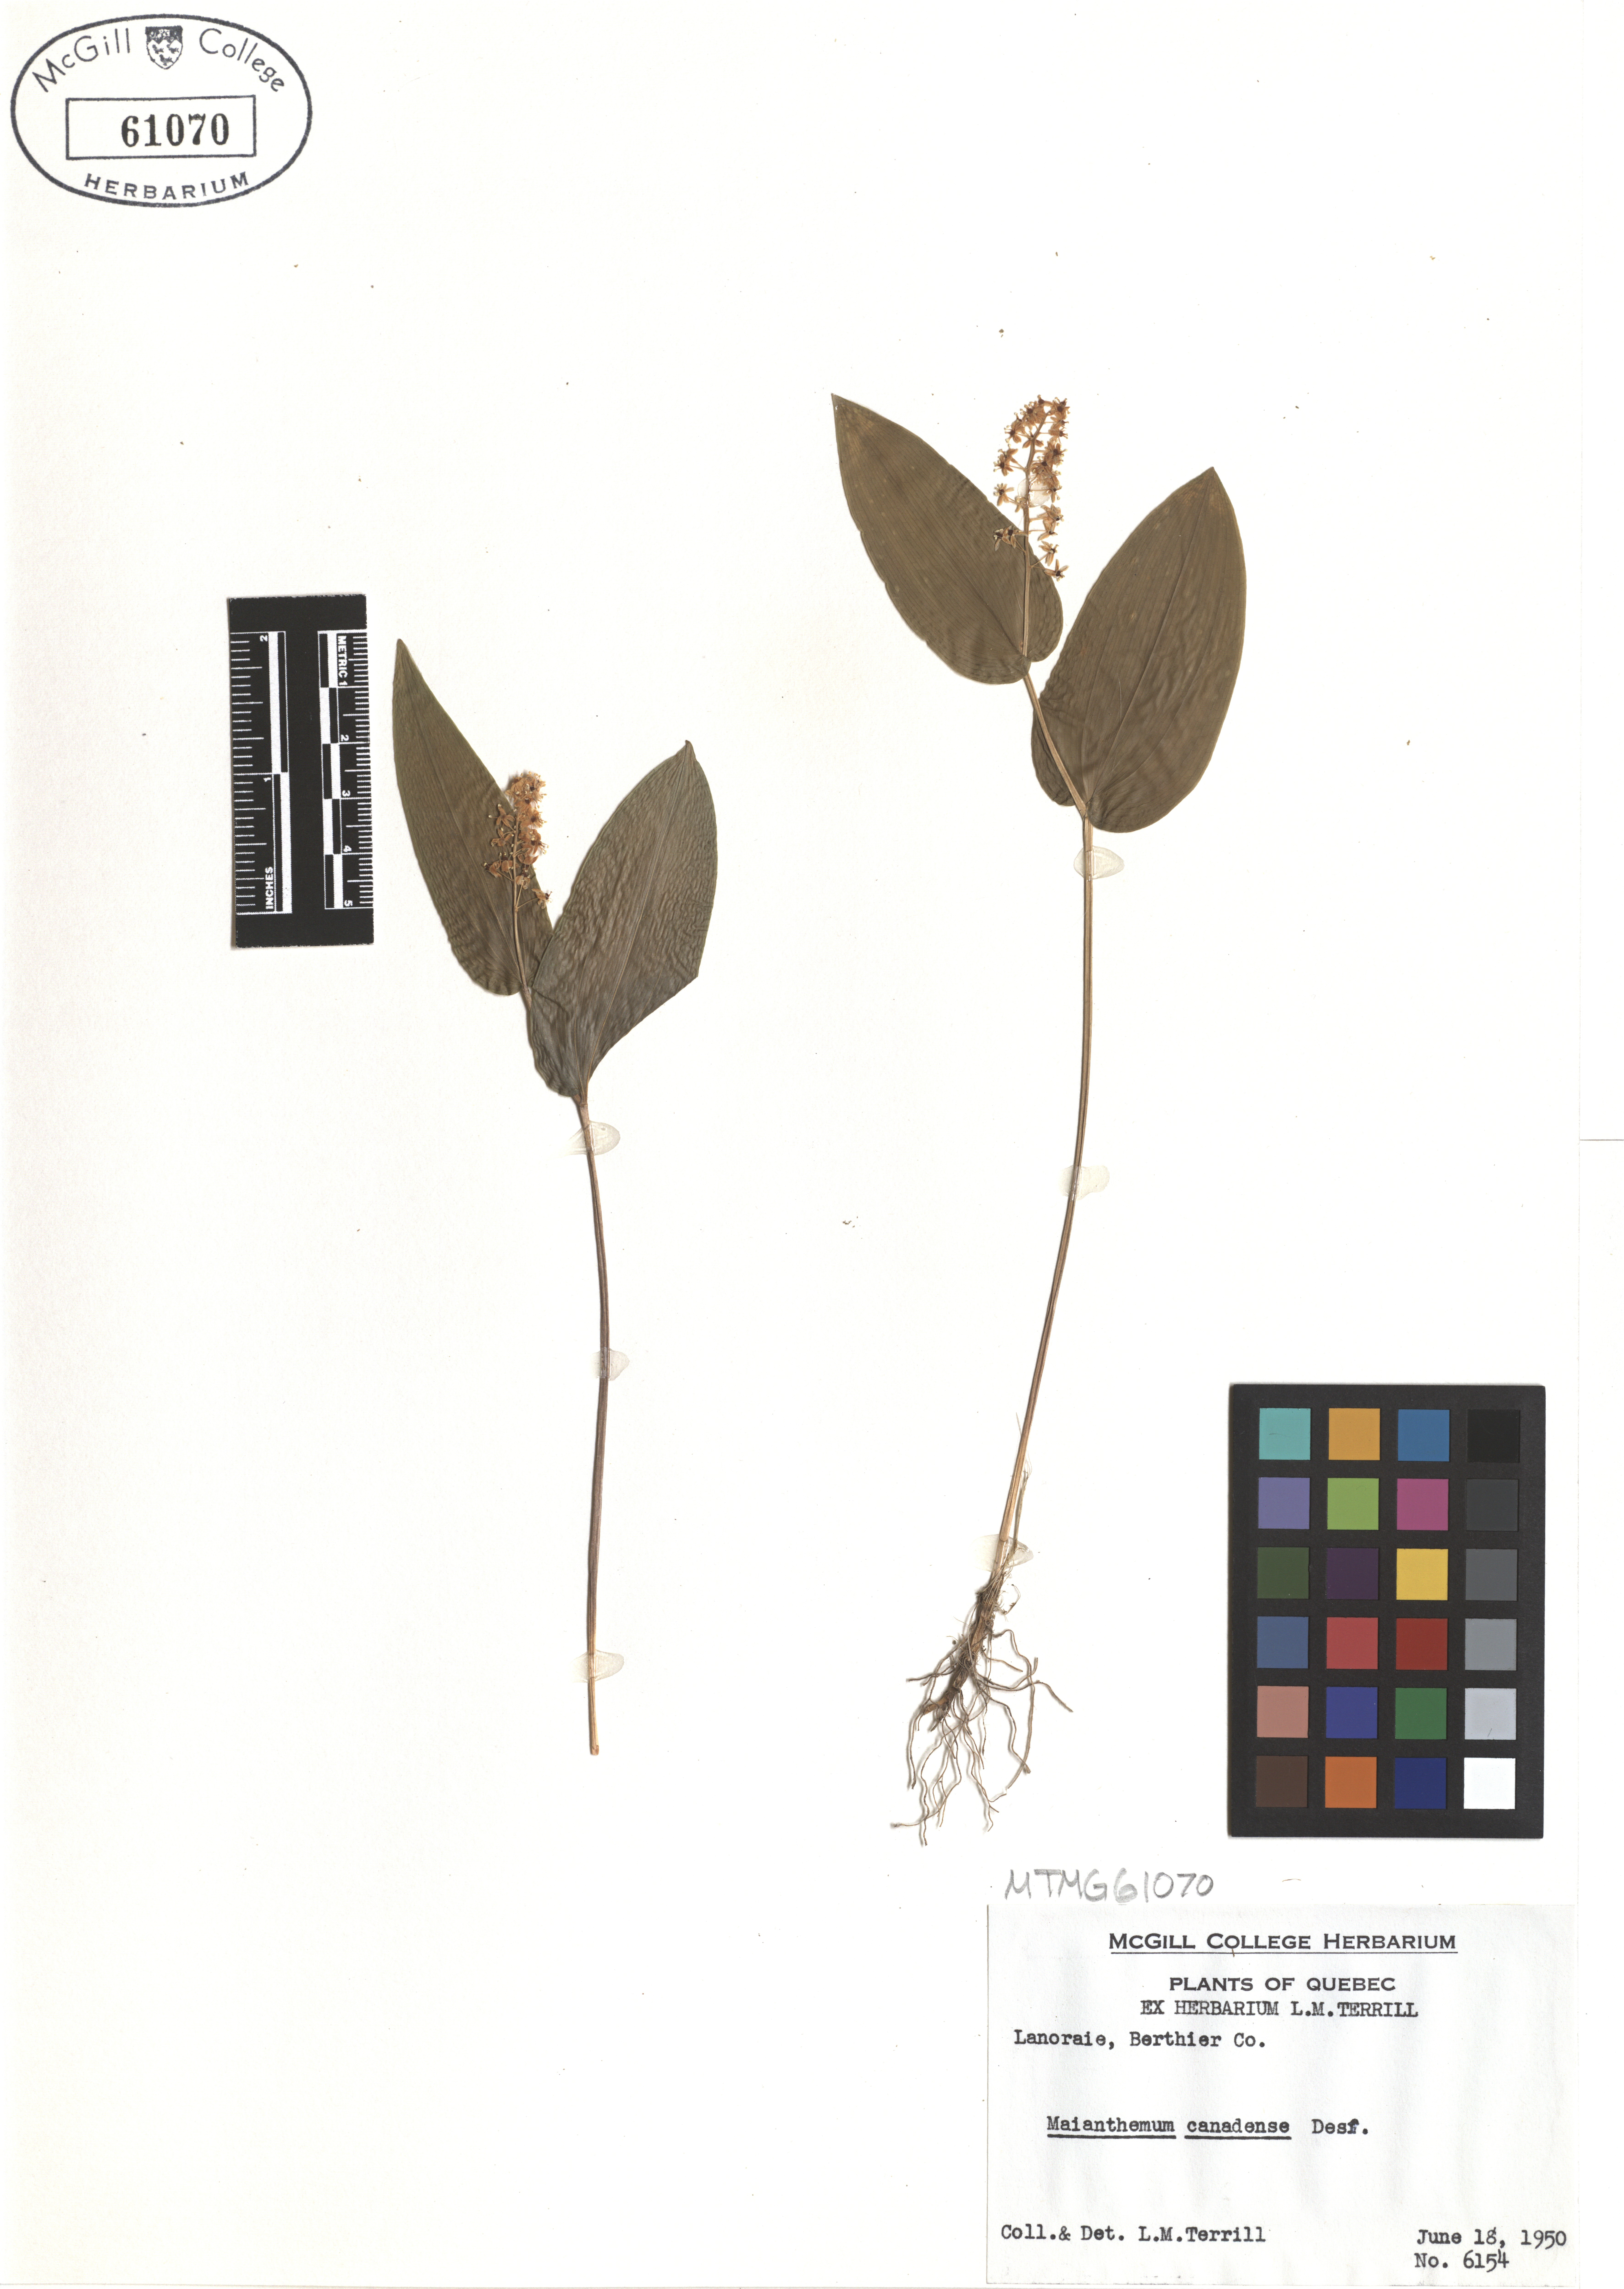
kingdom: Plantae
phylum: Tracheophyta
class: Liliopsida
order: Asparagales
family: Asparagaceae
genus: Maianthemum
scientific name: Maianthemum canadense
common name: False lily-of-the-valley
